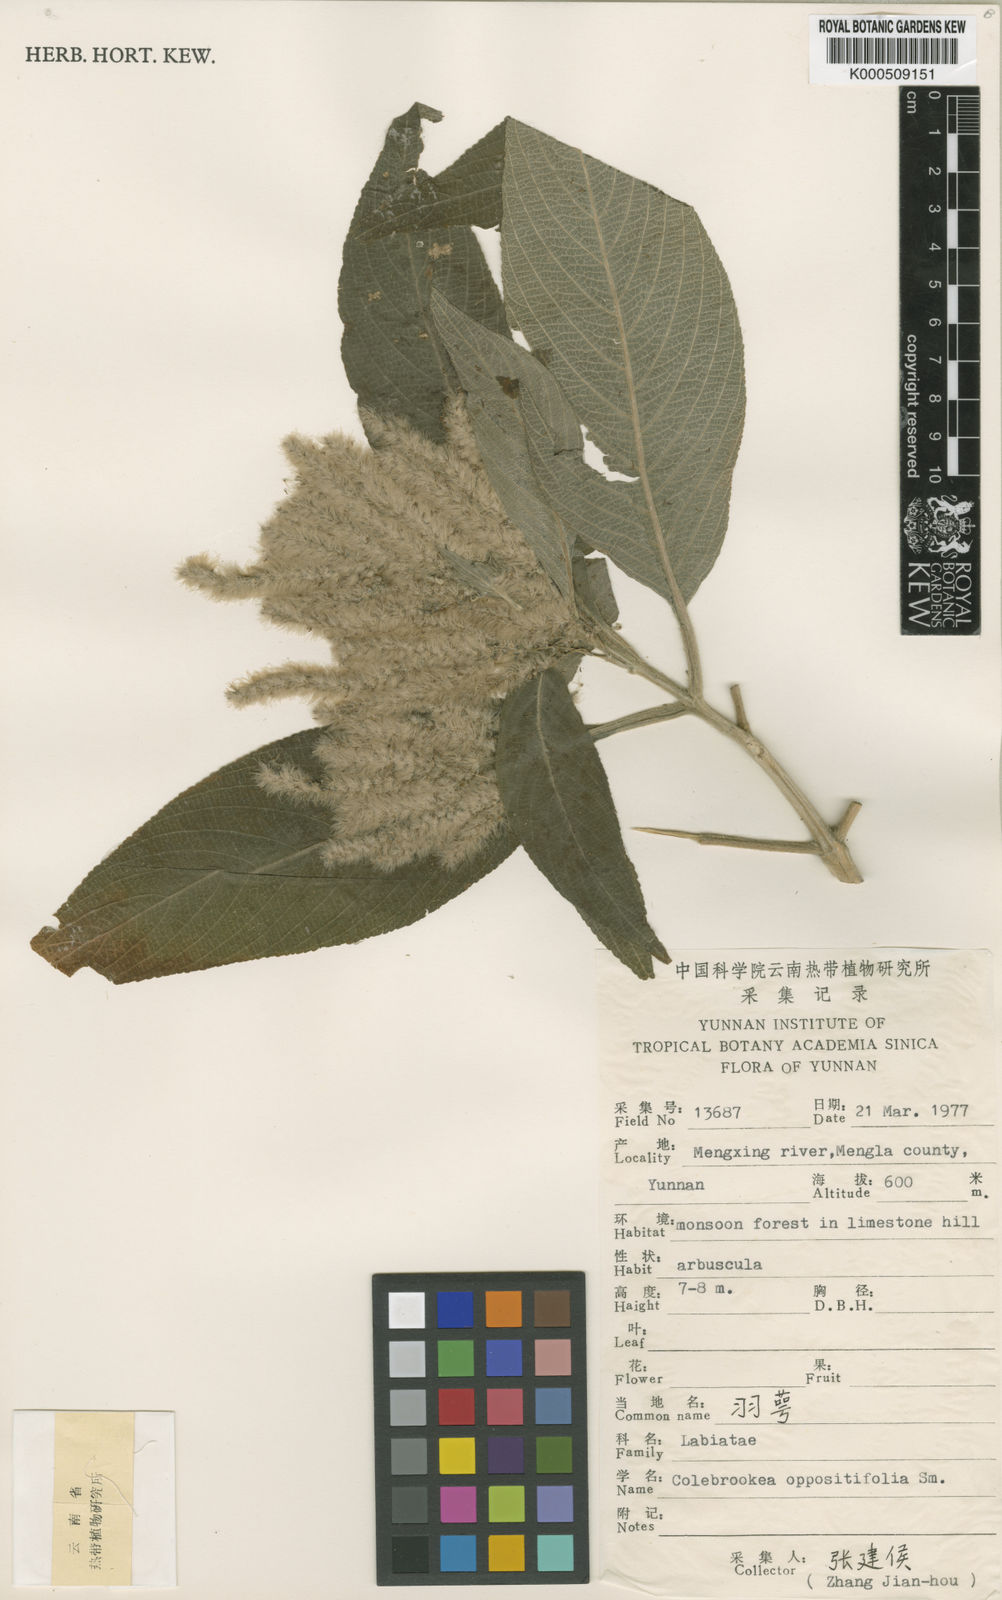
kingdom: Plantae
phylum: Tracheophyta
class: Magnoliopsida
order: Lamiales
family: Lamiaceae
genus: Colebrookea
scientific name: Colebrookea oppositifolia
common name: Indian squirrel tail
